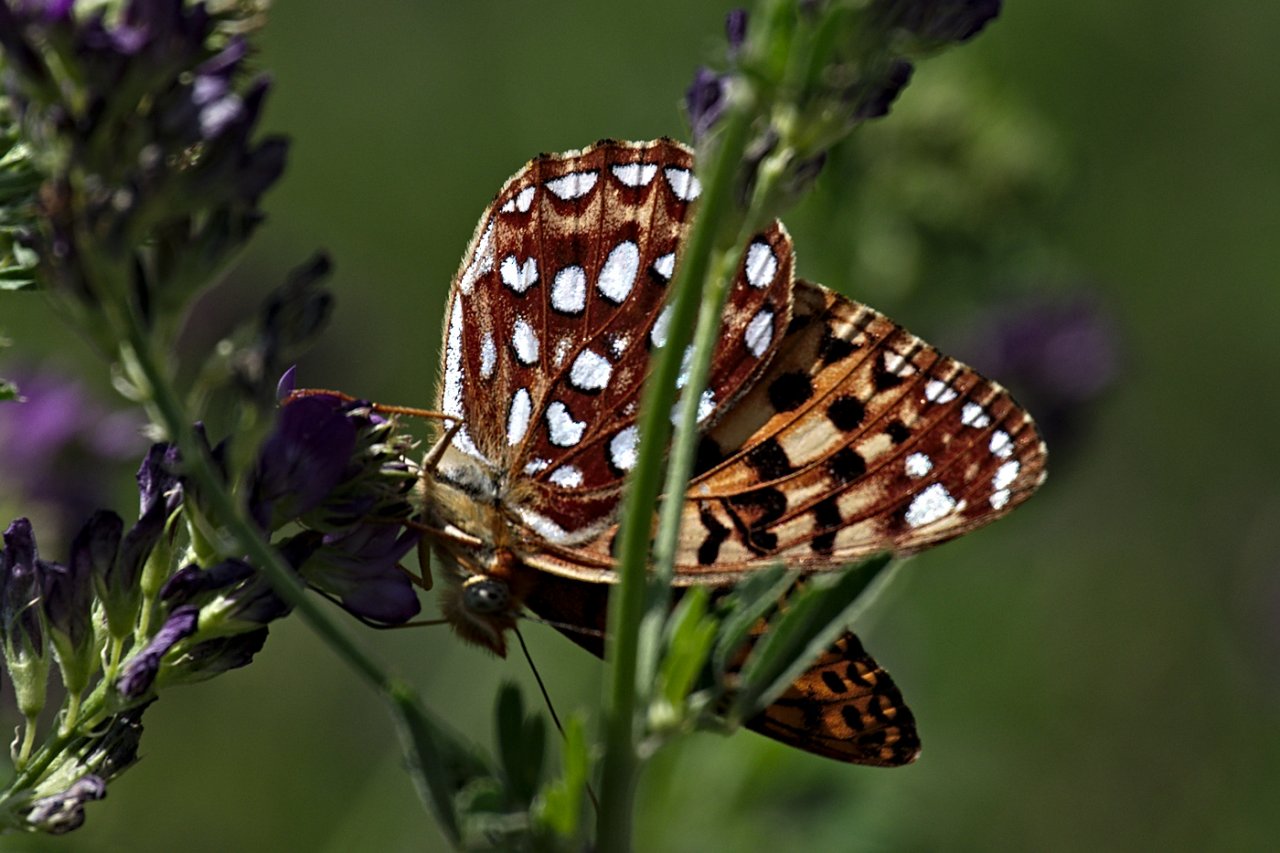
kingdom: Animalia
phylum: Arthropoda
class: Insecta
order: Lepidoptera
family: Nymphalidae
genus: Speyeria
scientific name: Speyeria atlantis
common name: Northwestern Fritillary
